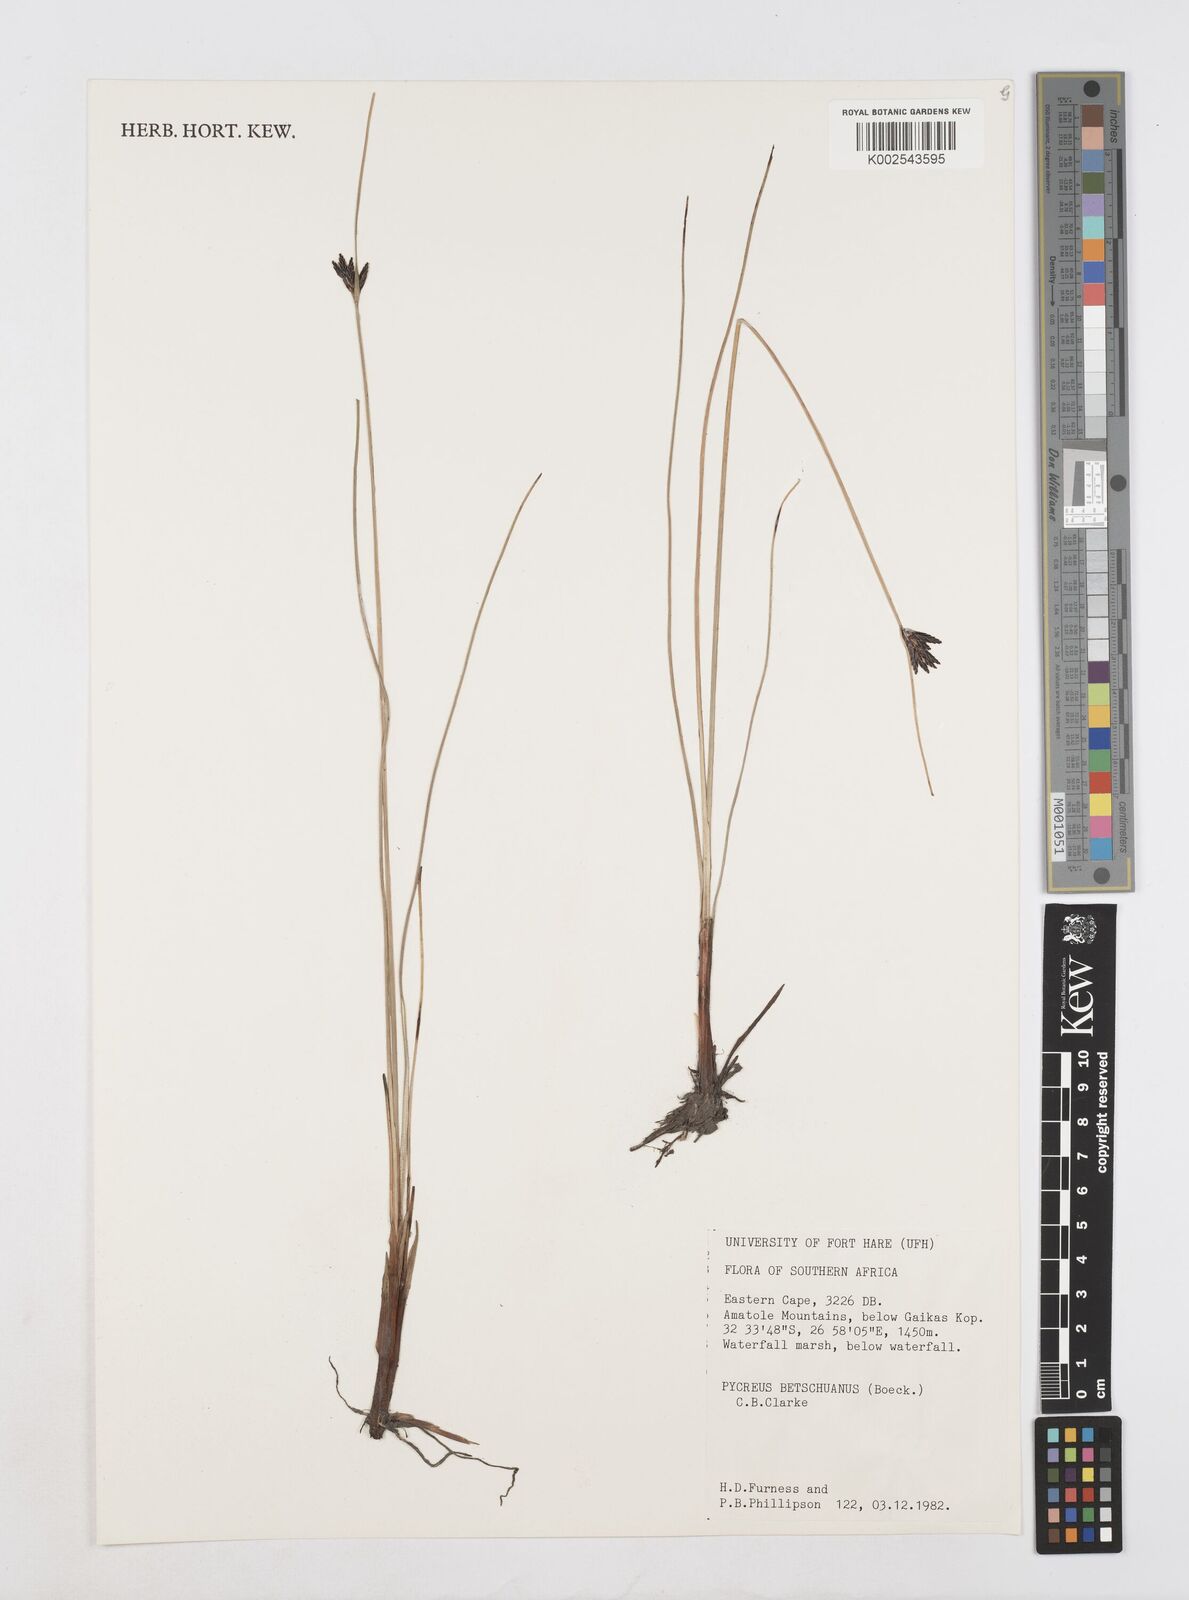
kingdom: Plantae
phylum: Tracheophyta
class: Liliopsida
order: Poales
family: Cyperaceae
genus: Cyperus
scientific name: Cyperus aethiops
